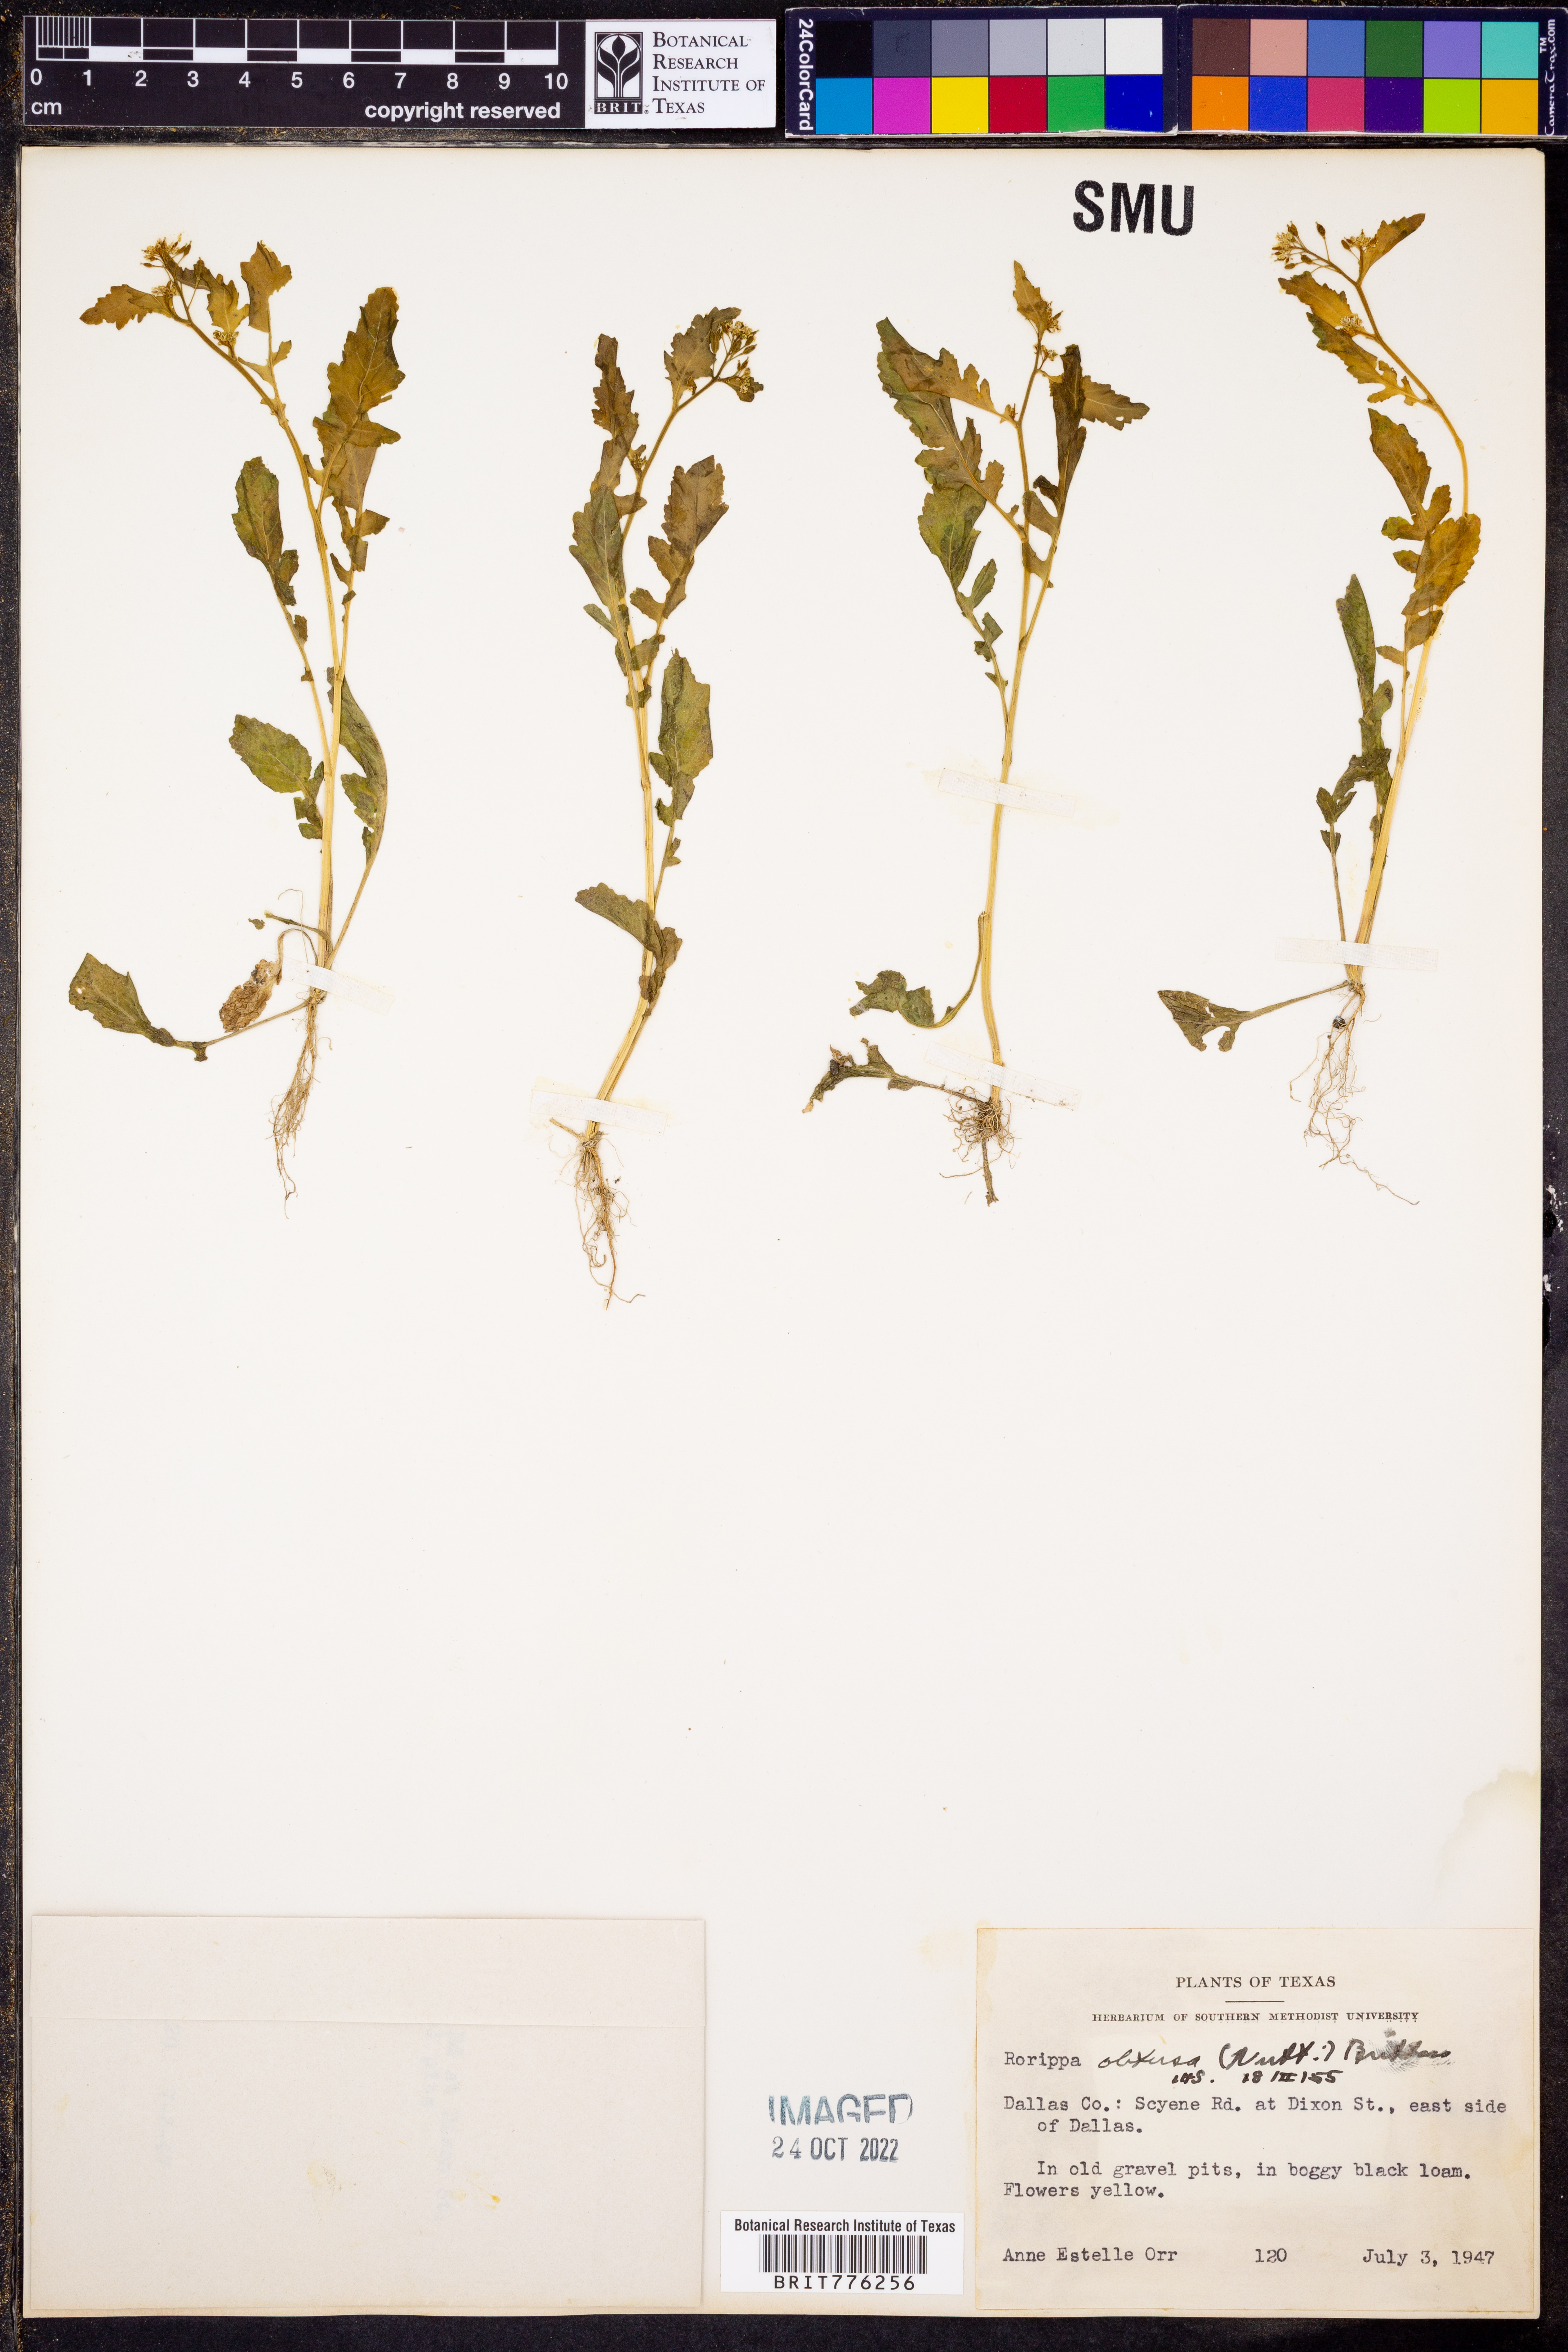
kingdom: Plantae
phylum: Tracheophyta
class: Magnoliopsida
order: Brassicales
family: Brassicaceae
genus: Rorippa
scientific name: Rorippa teres
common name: Southern marsh yellowcress
